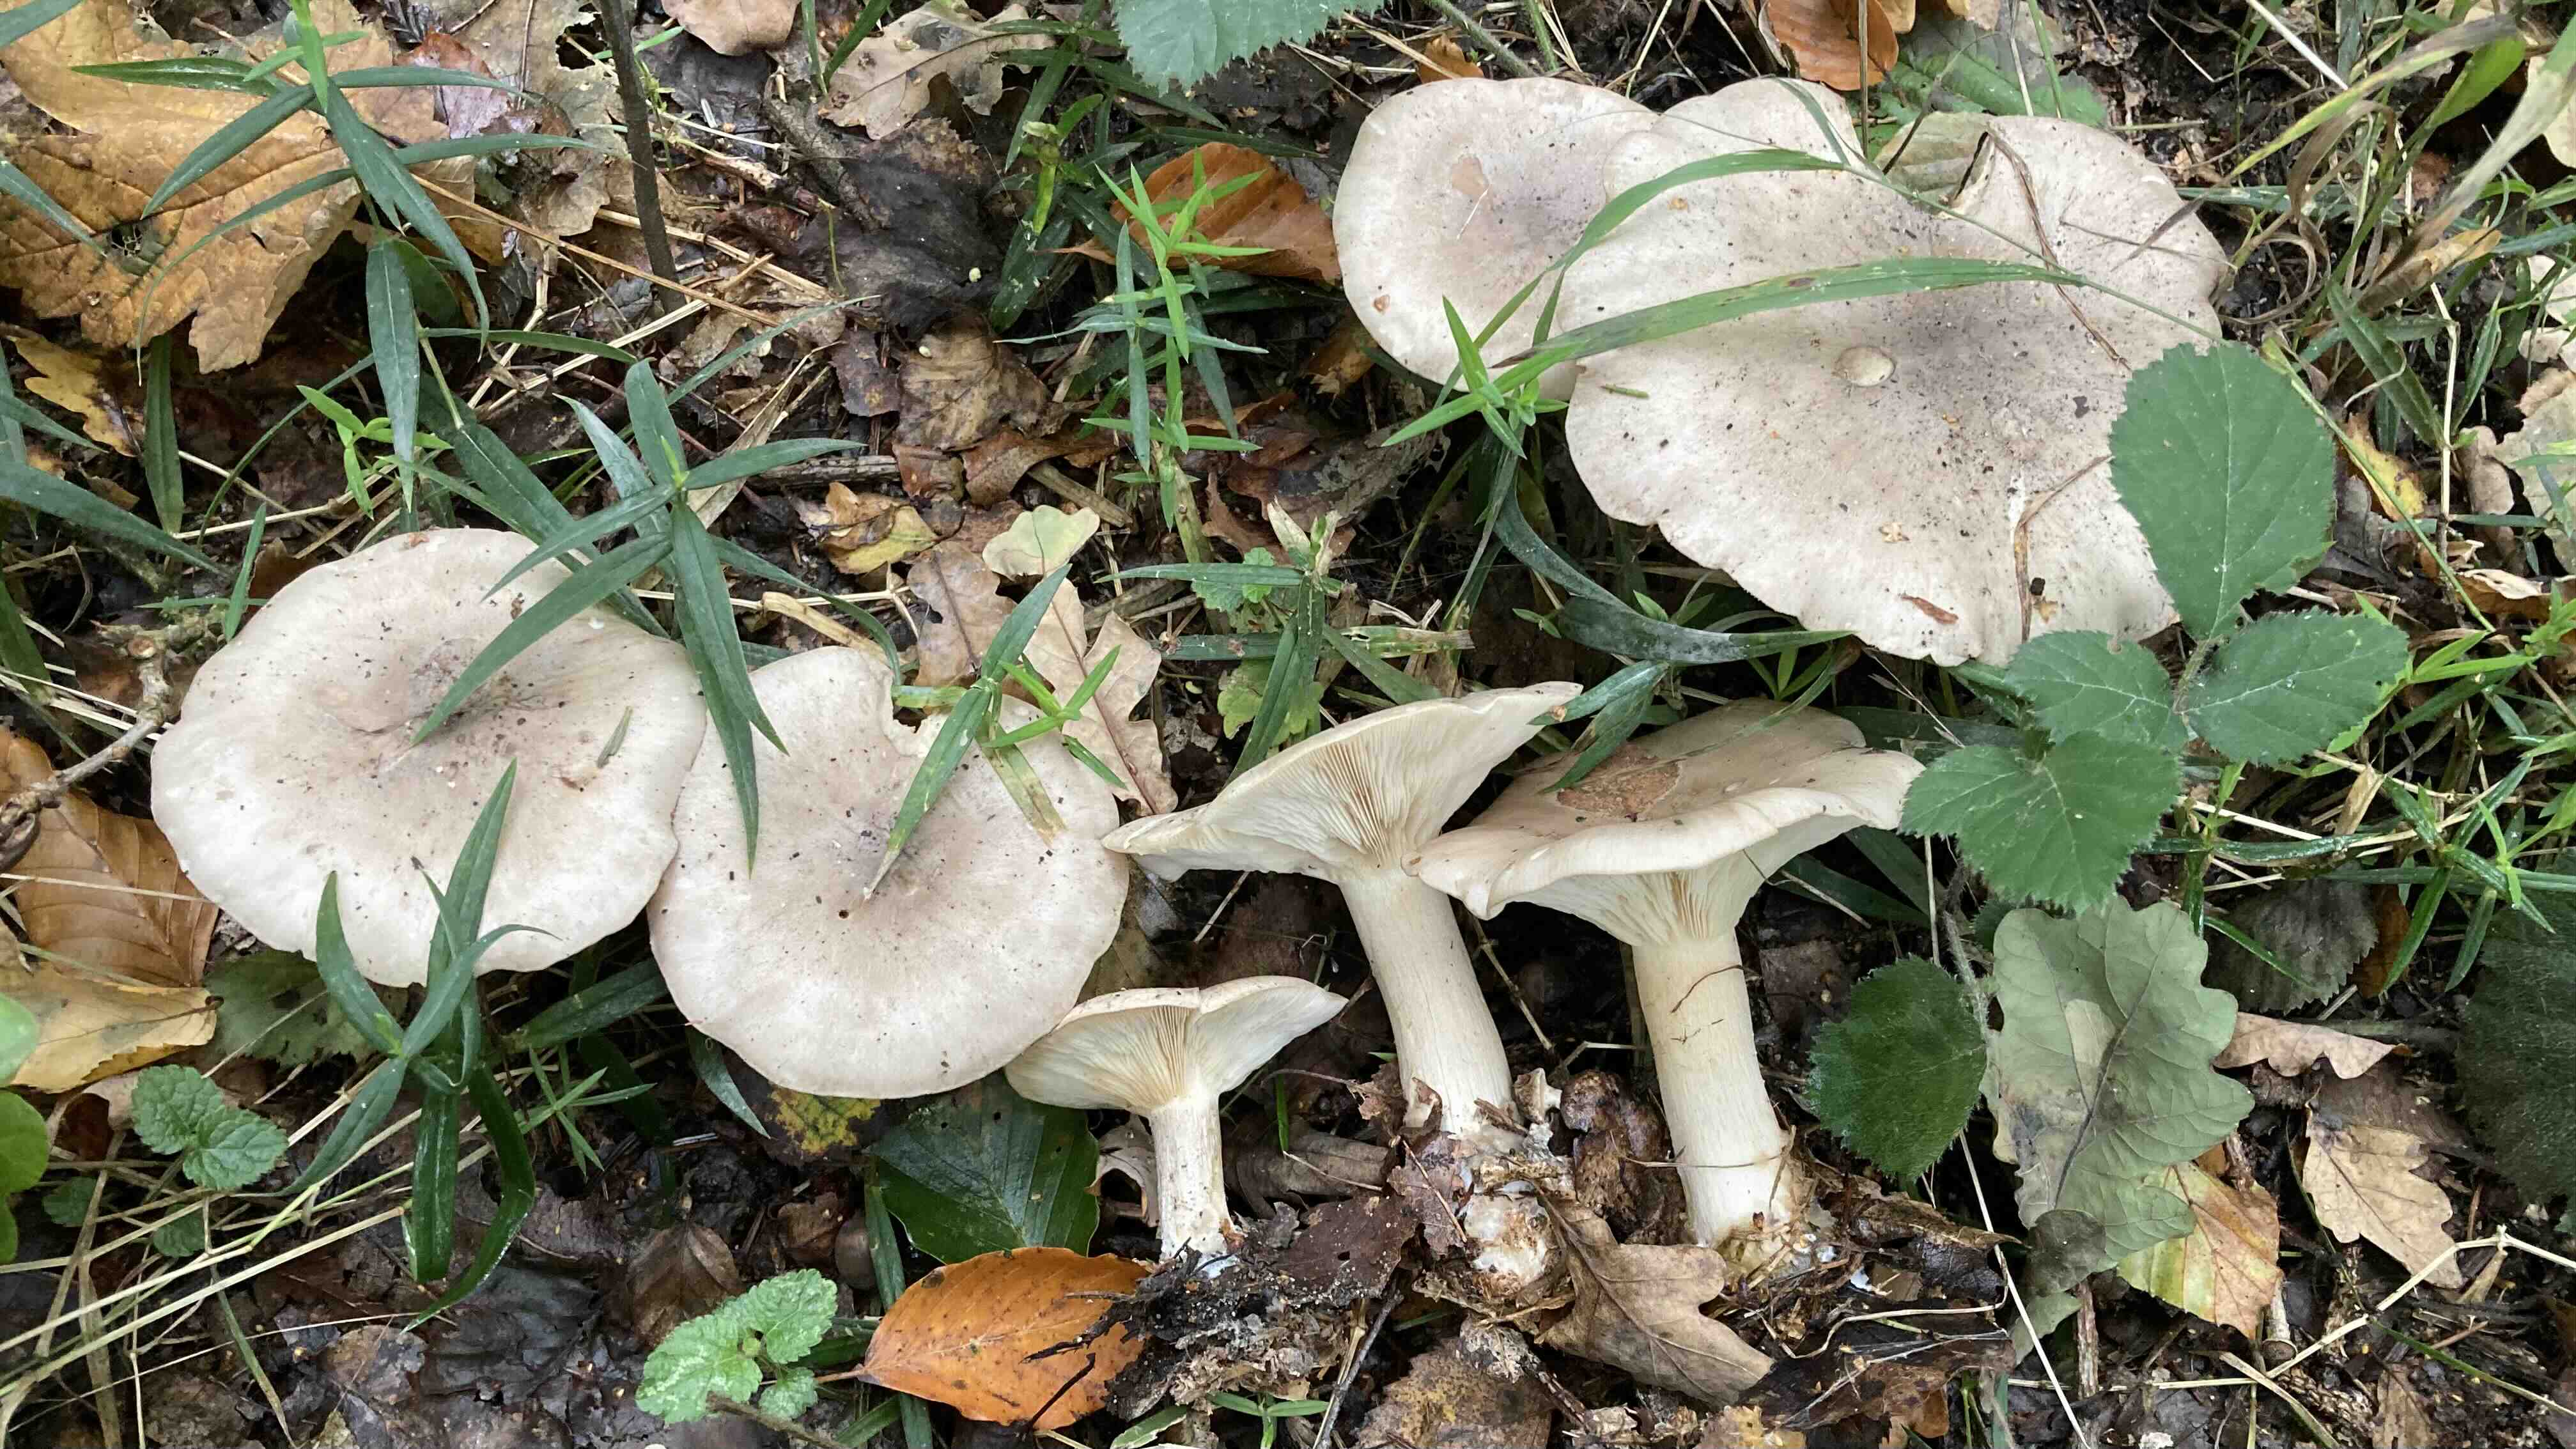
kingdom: Fungi
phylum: Basidiomycota
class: Agaricomycetes
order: Agaricales
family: Tricholomataceae
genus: Clitocybe
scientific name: Clitocybe nebularis
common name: tåge-tragthat
